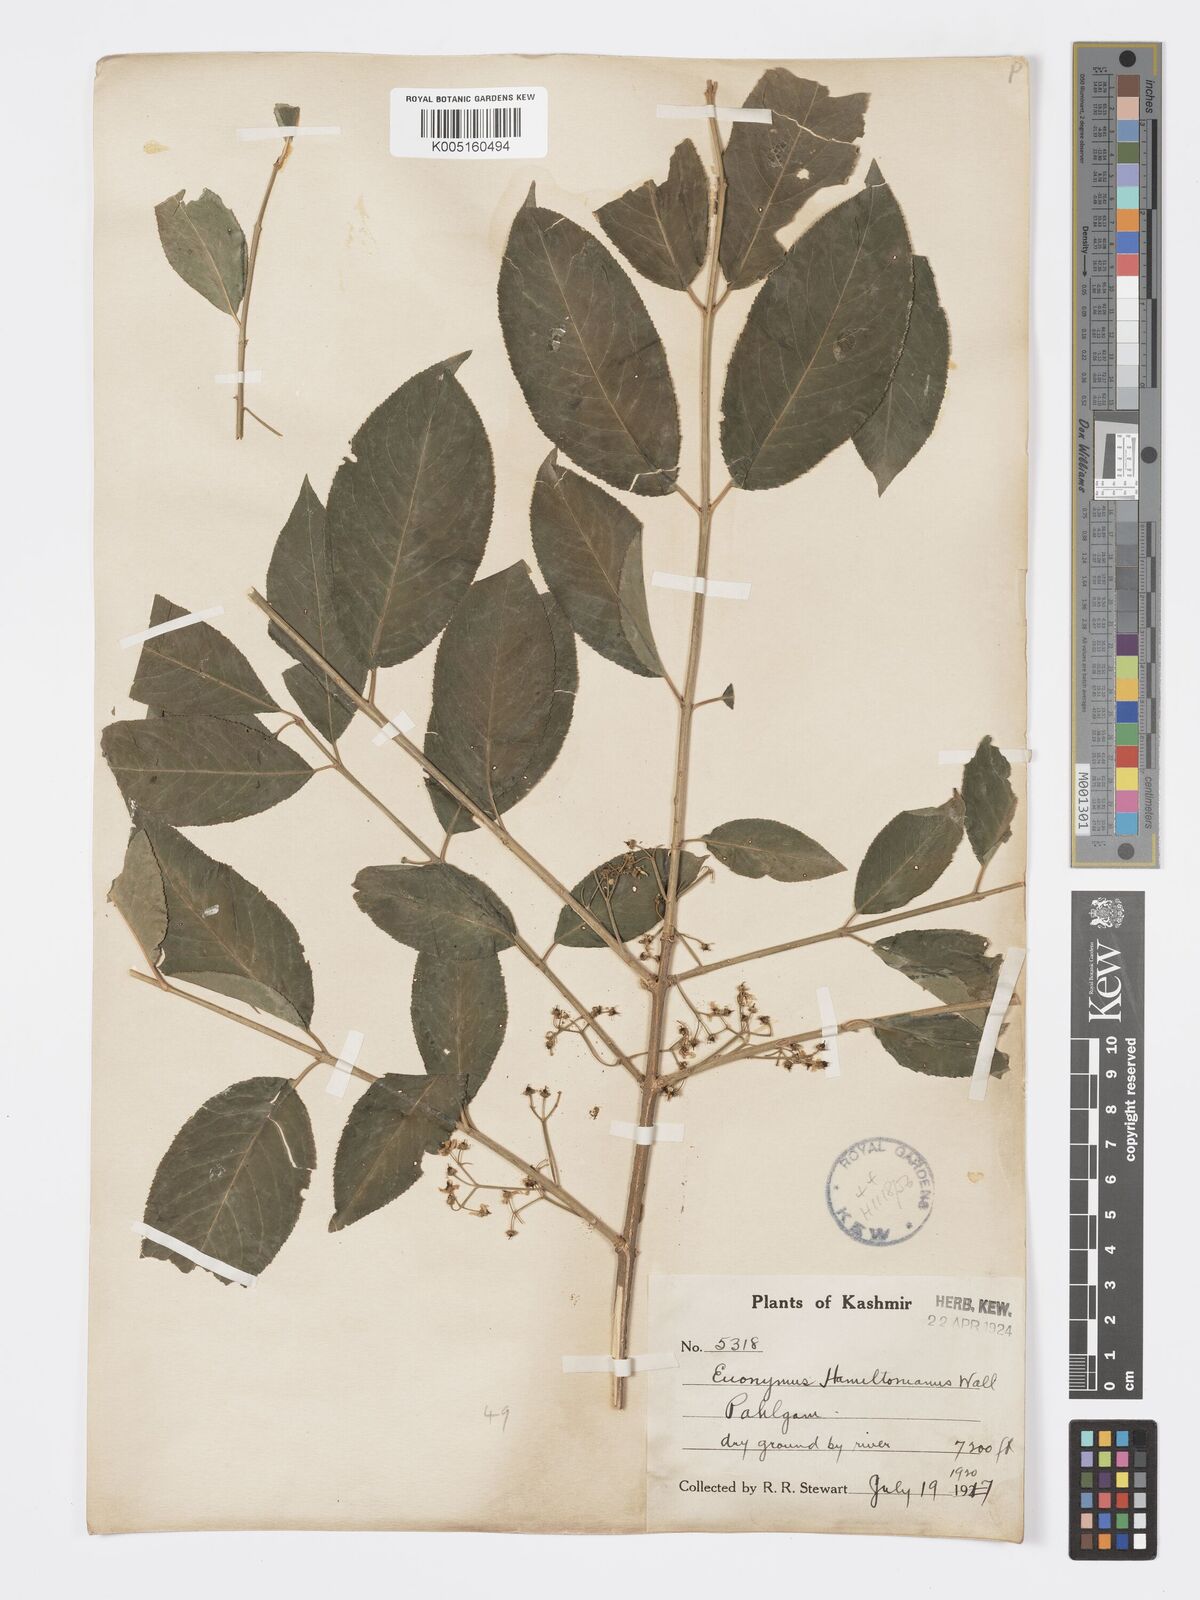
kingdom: Plantae
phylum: Tracheophyta
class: Magnoliopsida
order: Celastrales
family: Celastraceae
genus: Euonymus
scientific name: Euonymus
